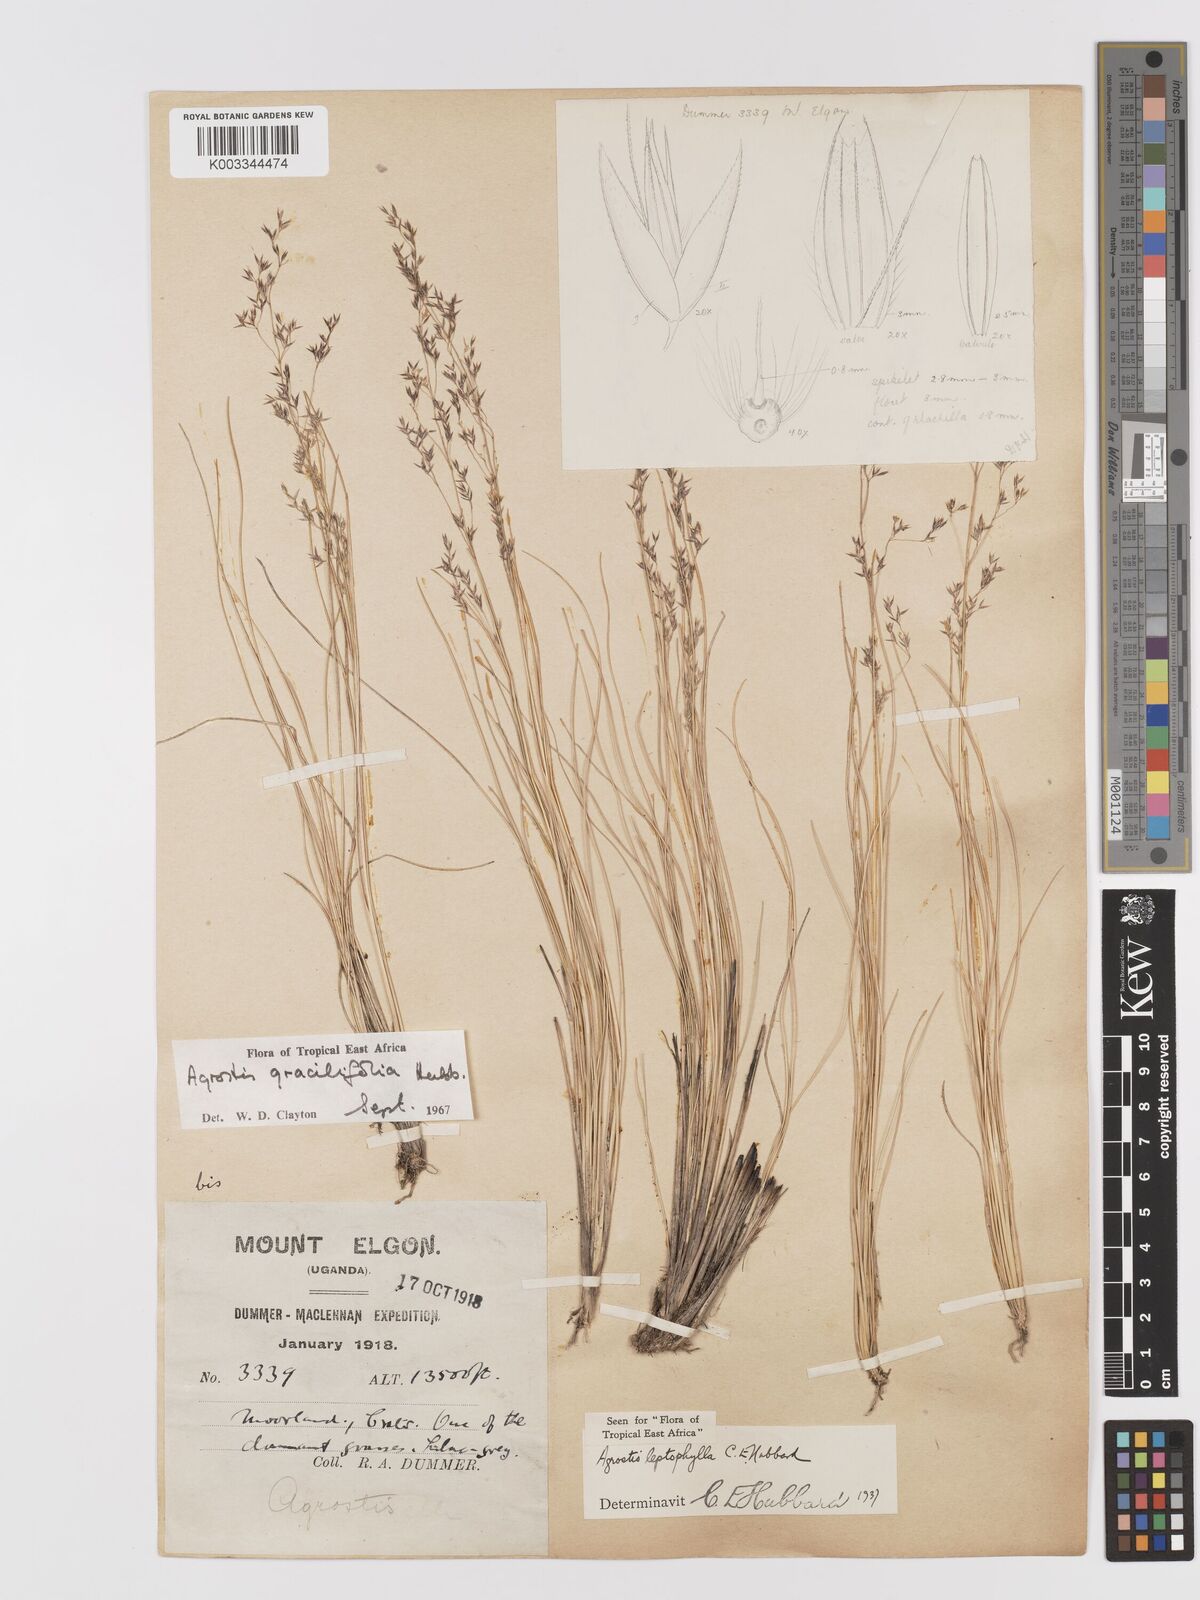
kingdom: Plantae
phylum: Tracheophyta
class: Liliopsida
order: Poales
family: Poaceae
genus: Agrostis
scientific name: Agrostis gracilifolia
